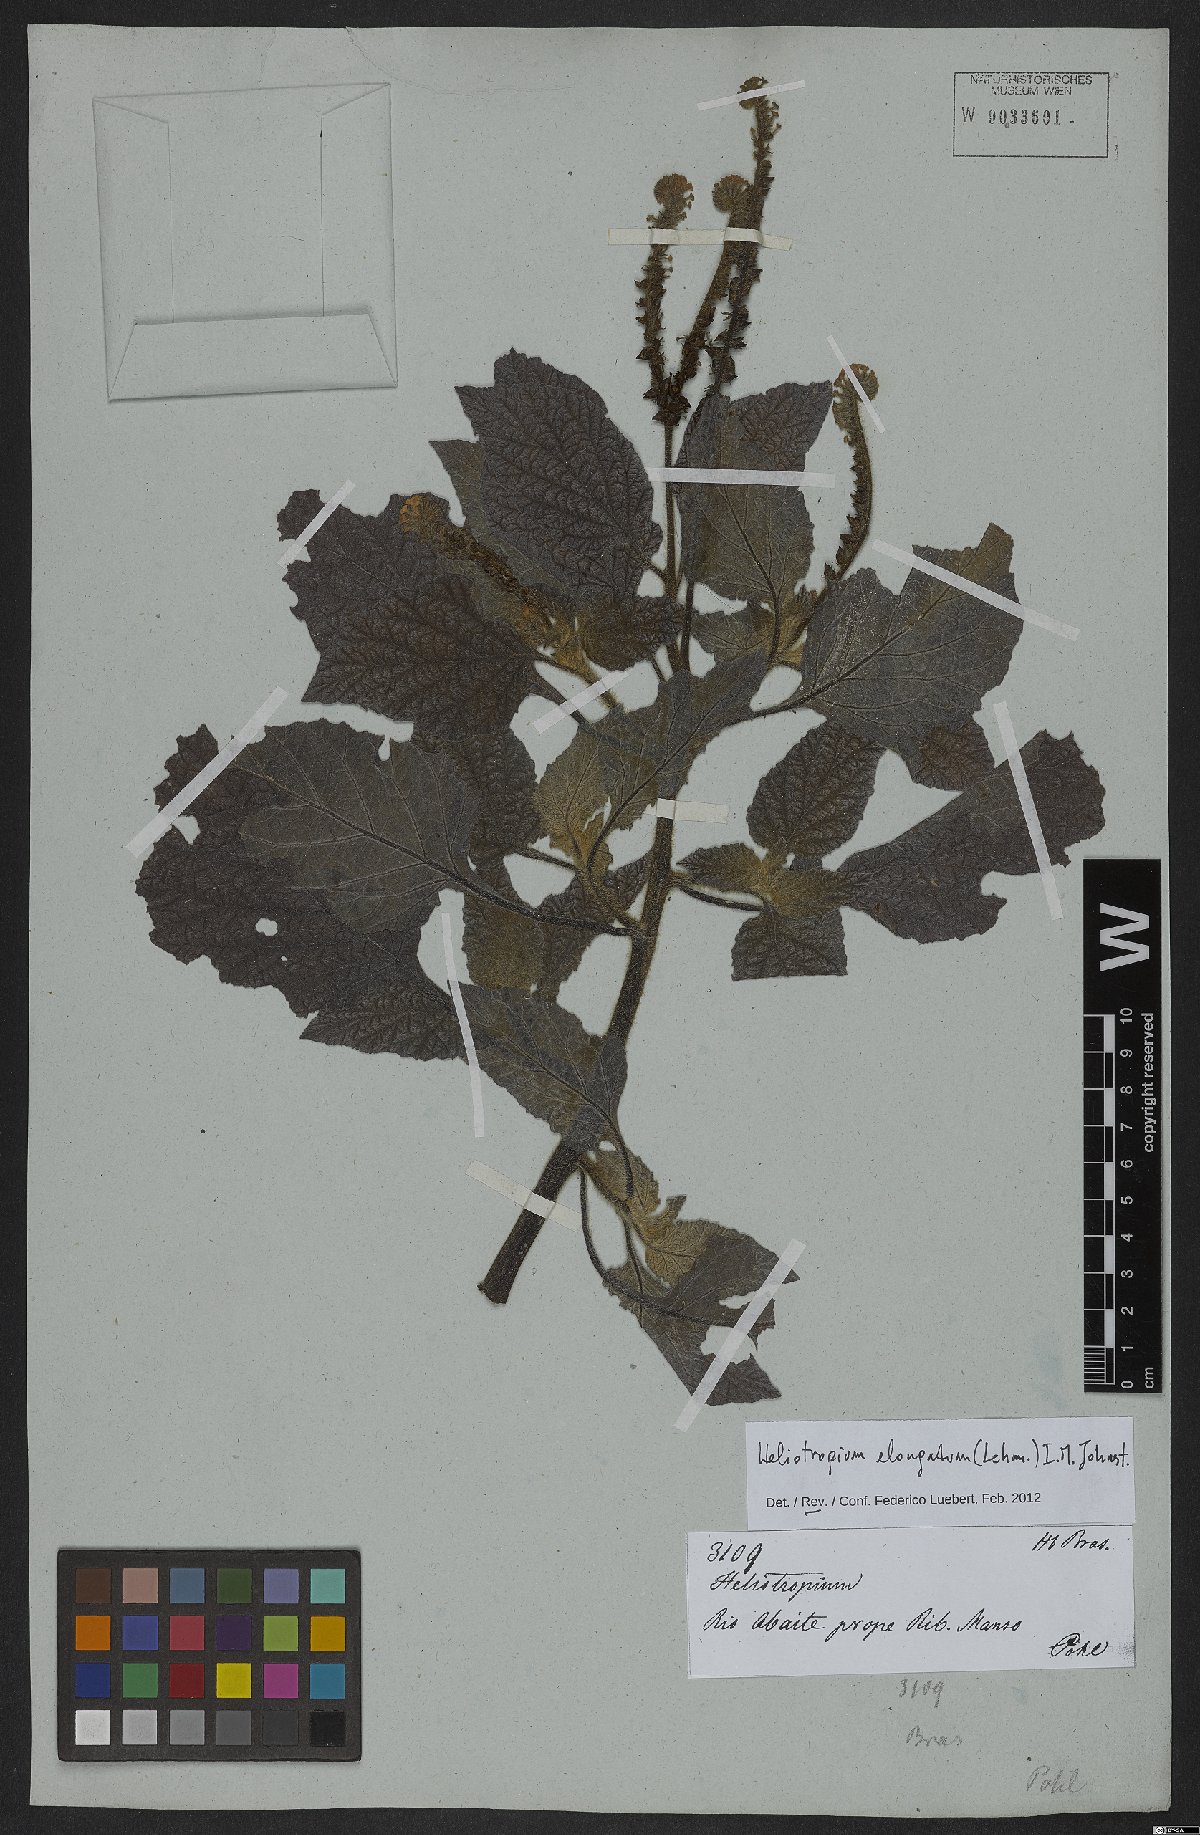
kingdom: Plantae
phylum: Tracheophyta
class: Magnoliopsida
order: Boraginales
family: Heliotropiaceae
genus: Heliotropium
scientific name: Heliotropium elongatum
